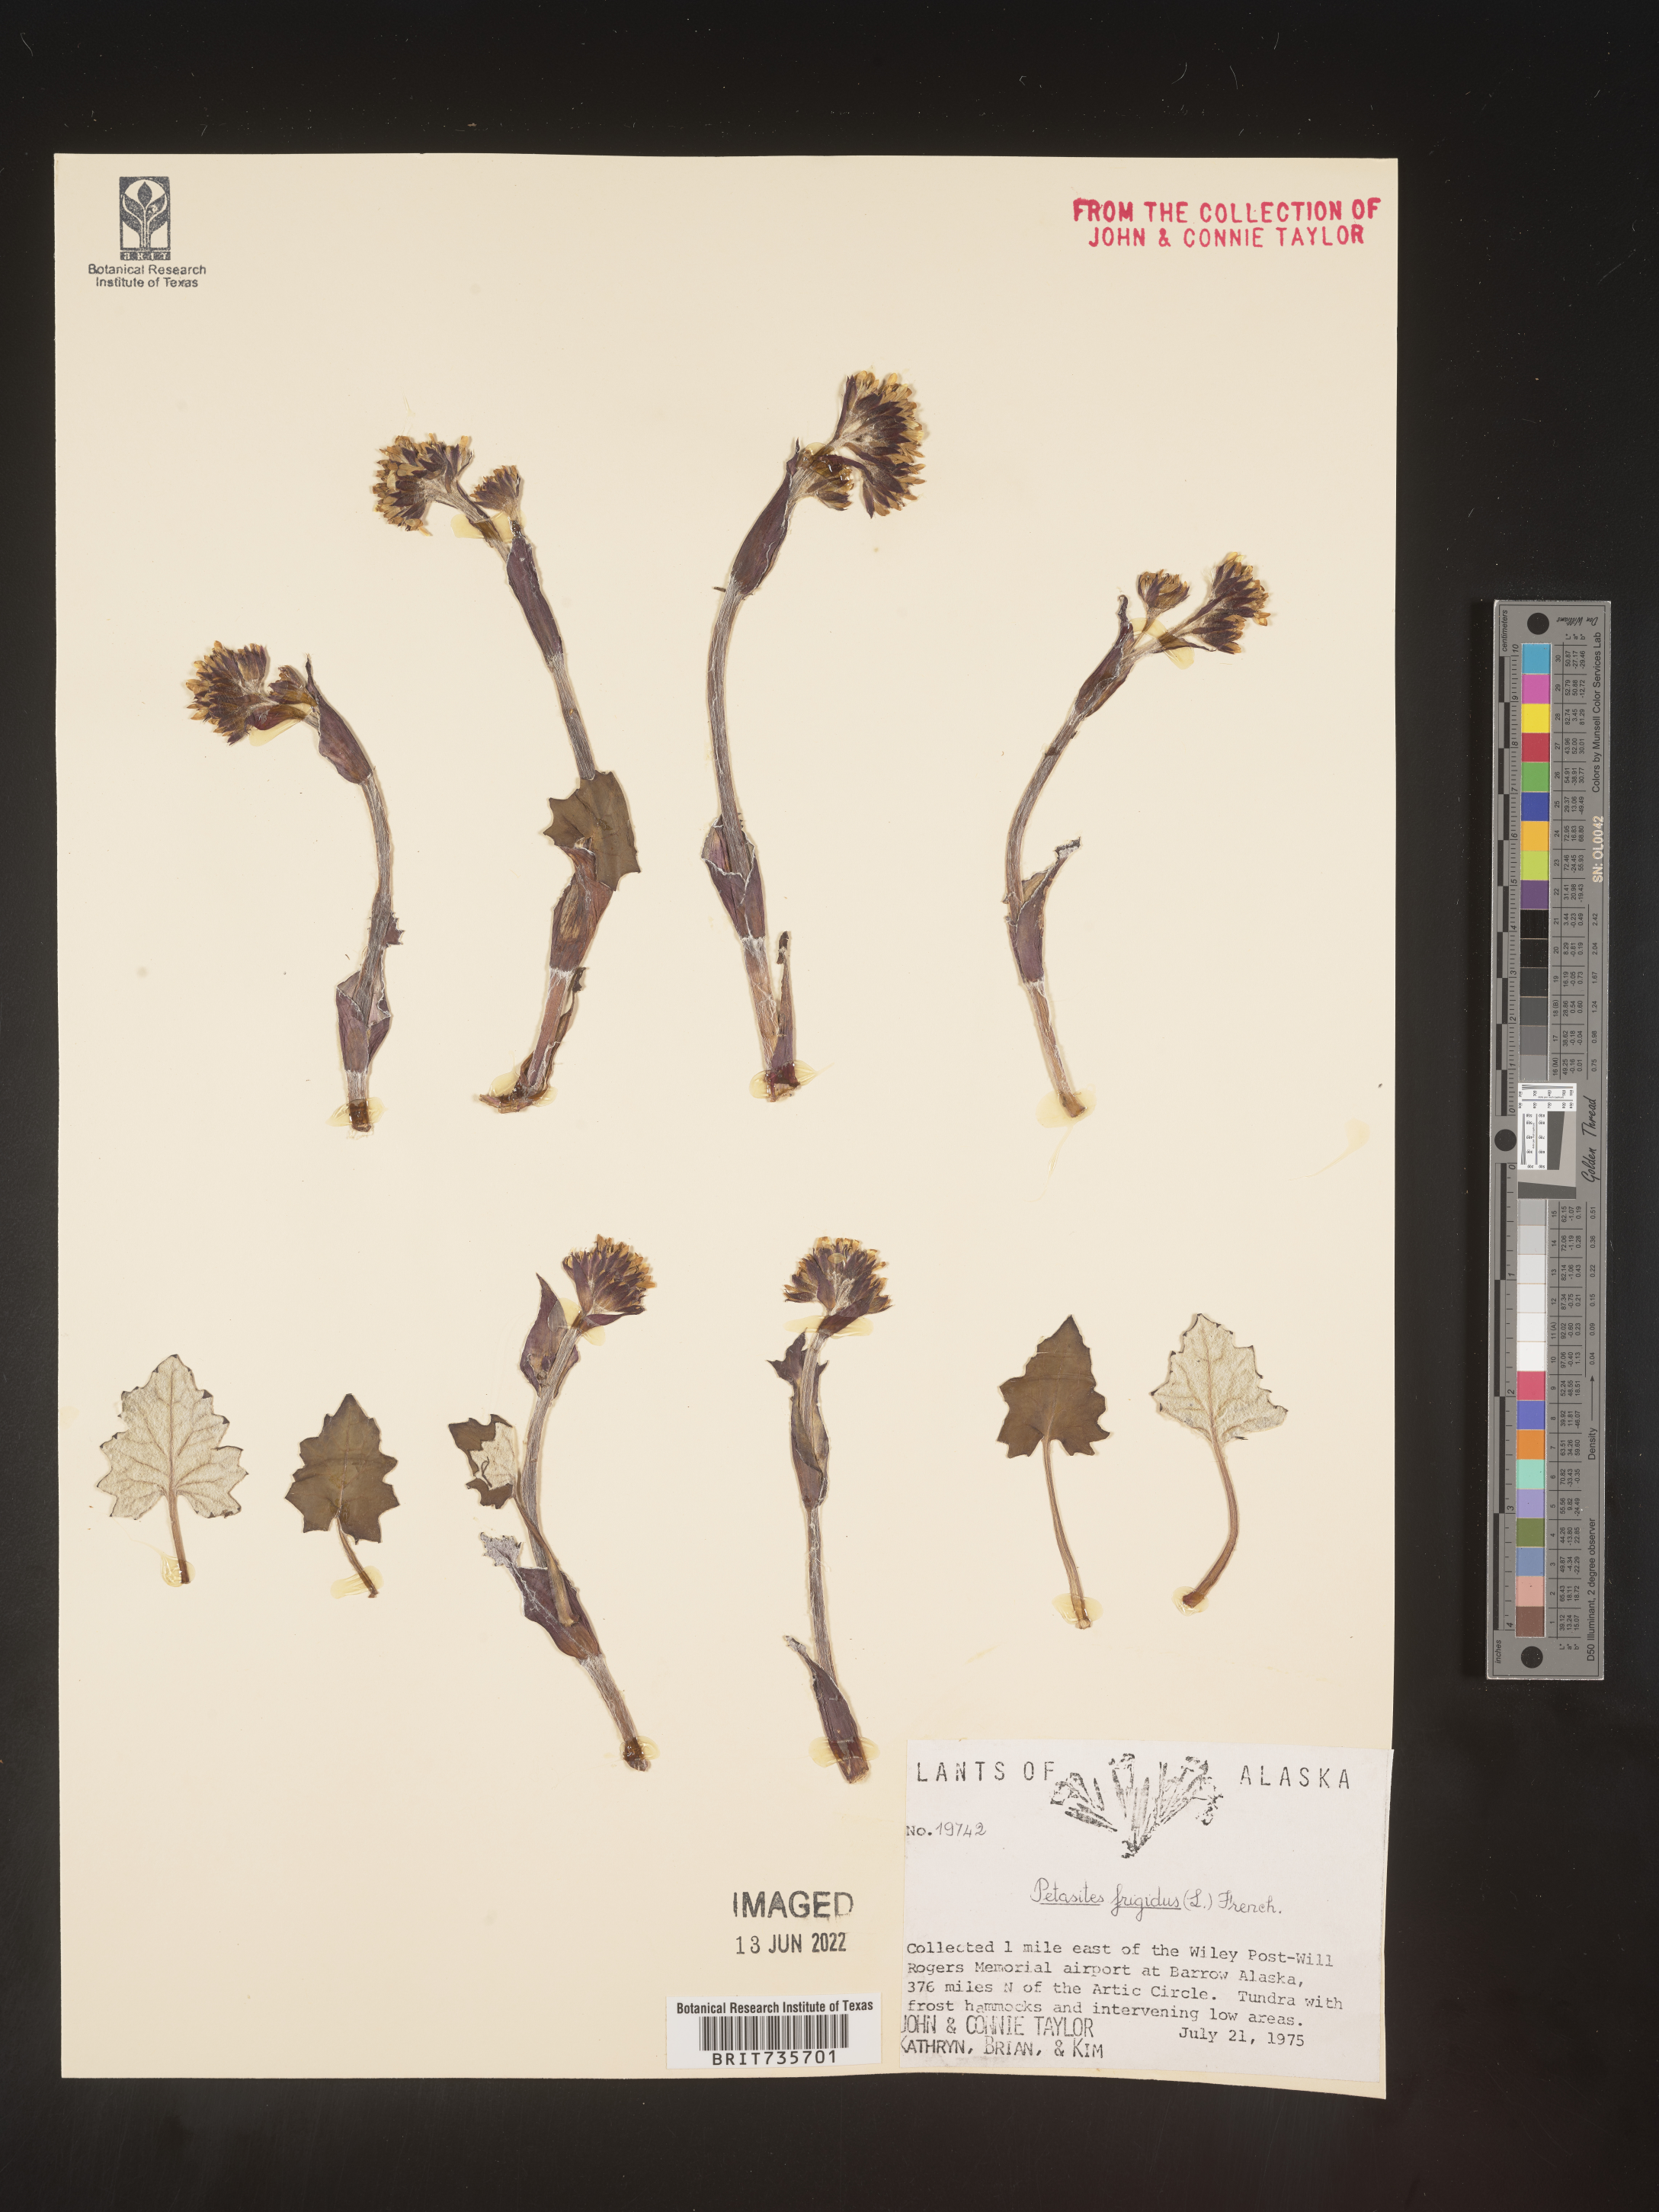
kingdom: Plantae
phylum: Tracheophyta
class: Magnoliopsida
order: Asterales
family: Asteraceae
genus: Petasites
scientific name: Petasites frigidus
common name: Arctic butterbur
